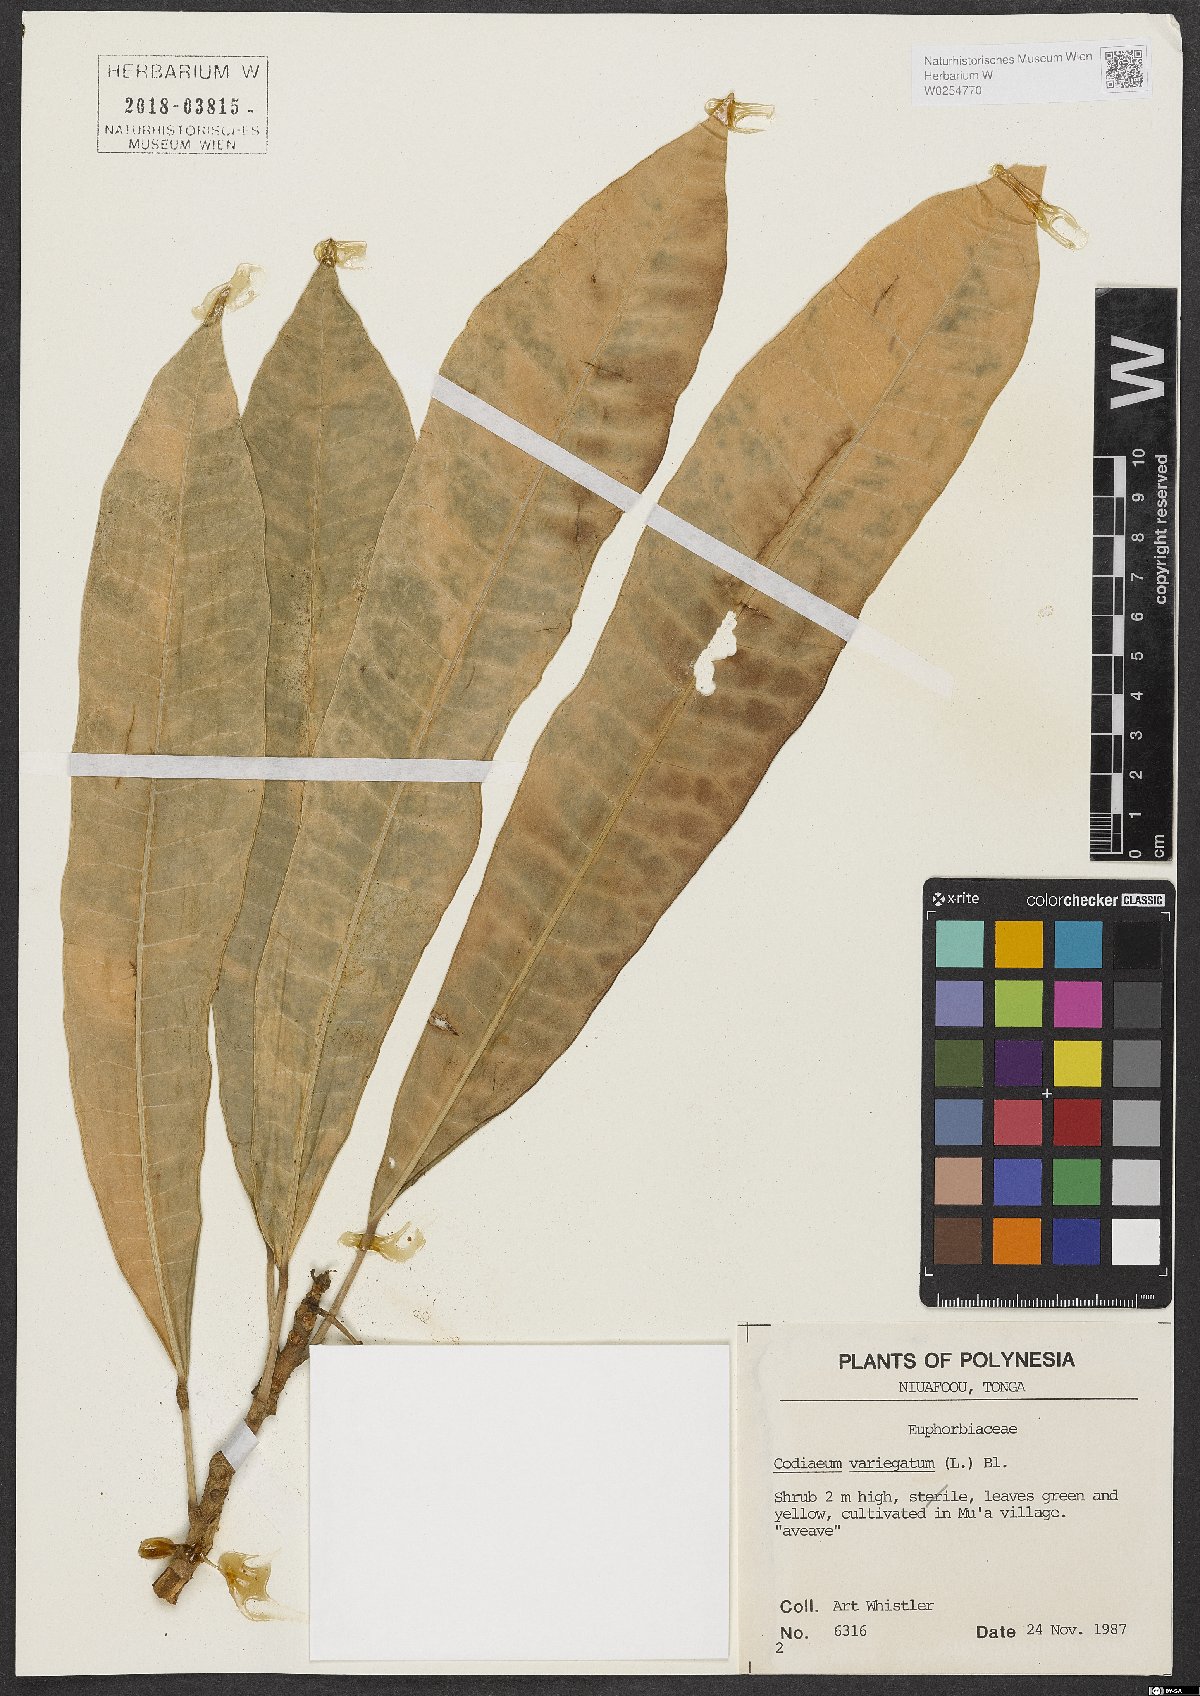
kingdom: Plantae
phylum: Tracheophyta
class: Magnoliopsida
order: Malpighiales
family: Euphorbiaceae
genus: Codiaeum
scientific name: Codiaeum variegatum
